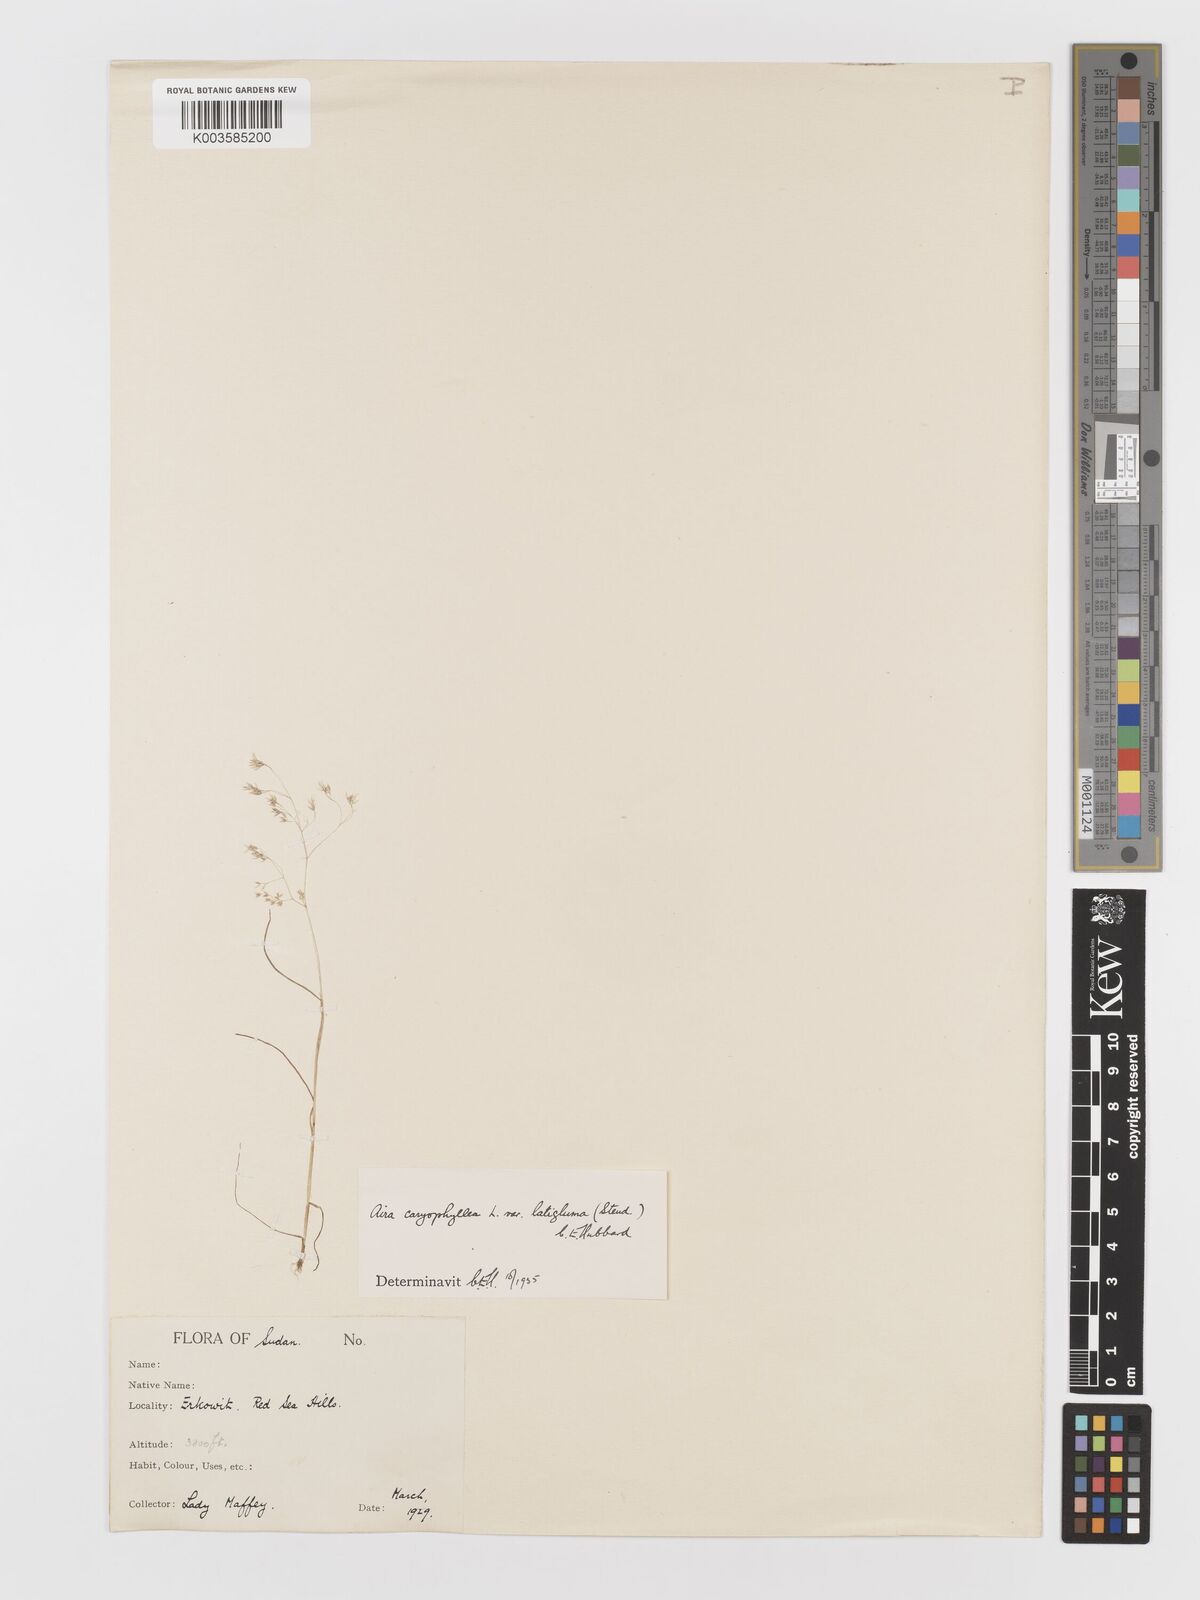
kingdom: Plantae
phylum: Tracheophyta
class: Liliopsida
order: Poales
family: Poaceae
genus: Aira
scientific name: Aira cupaniana
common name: Silver hairgrass
